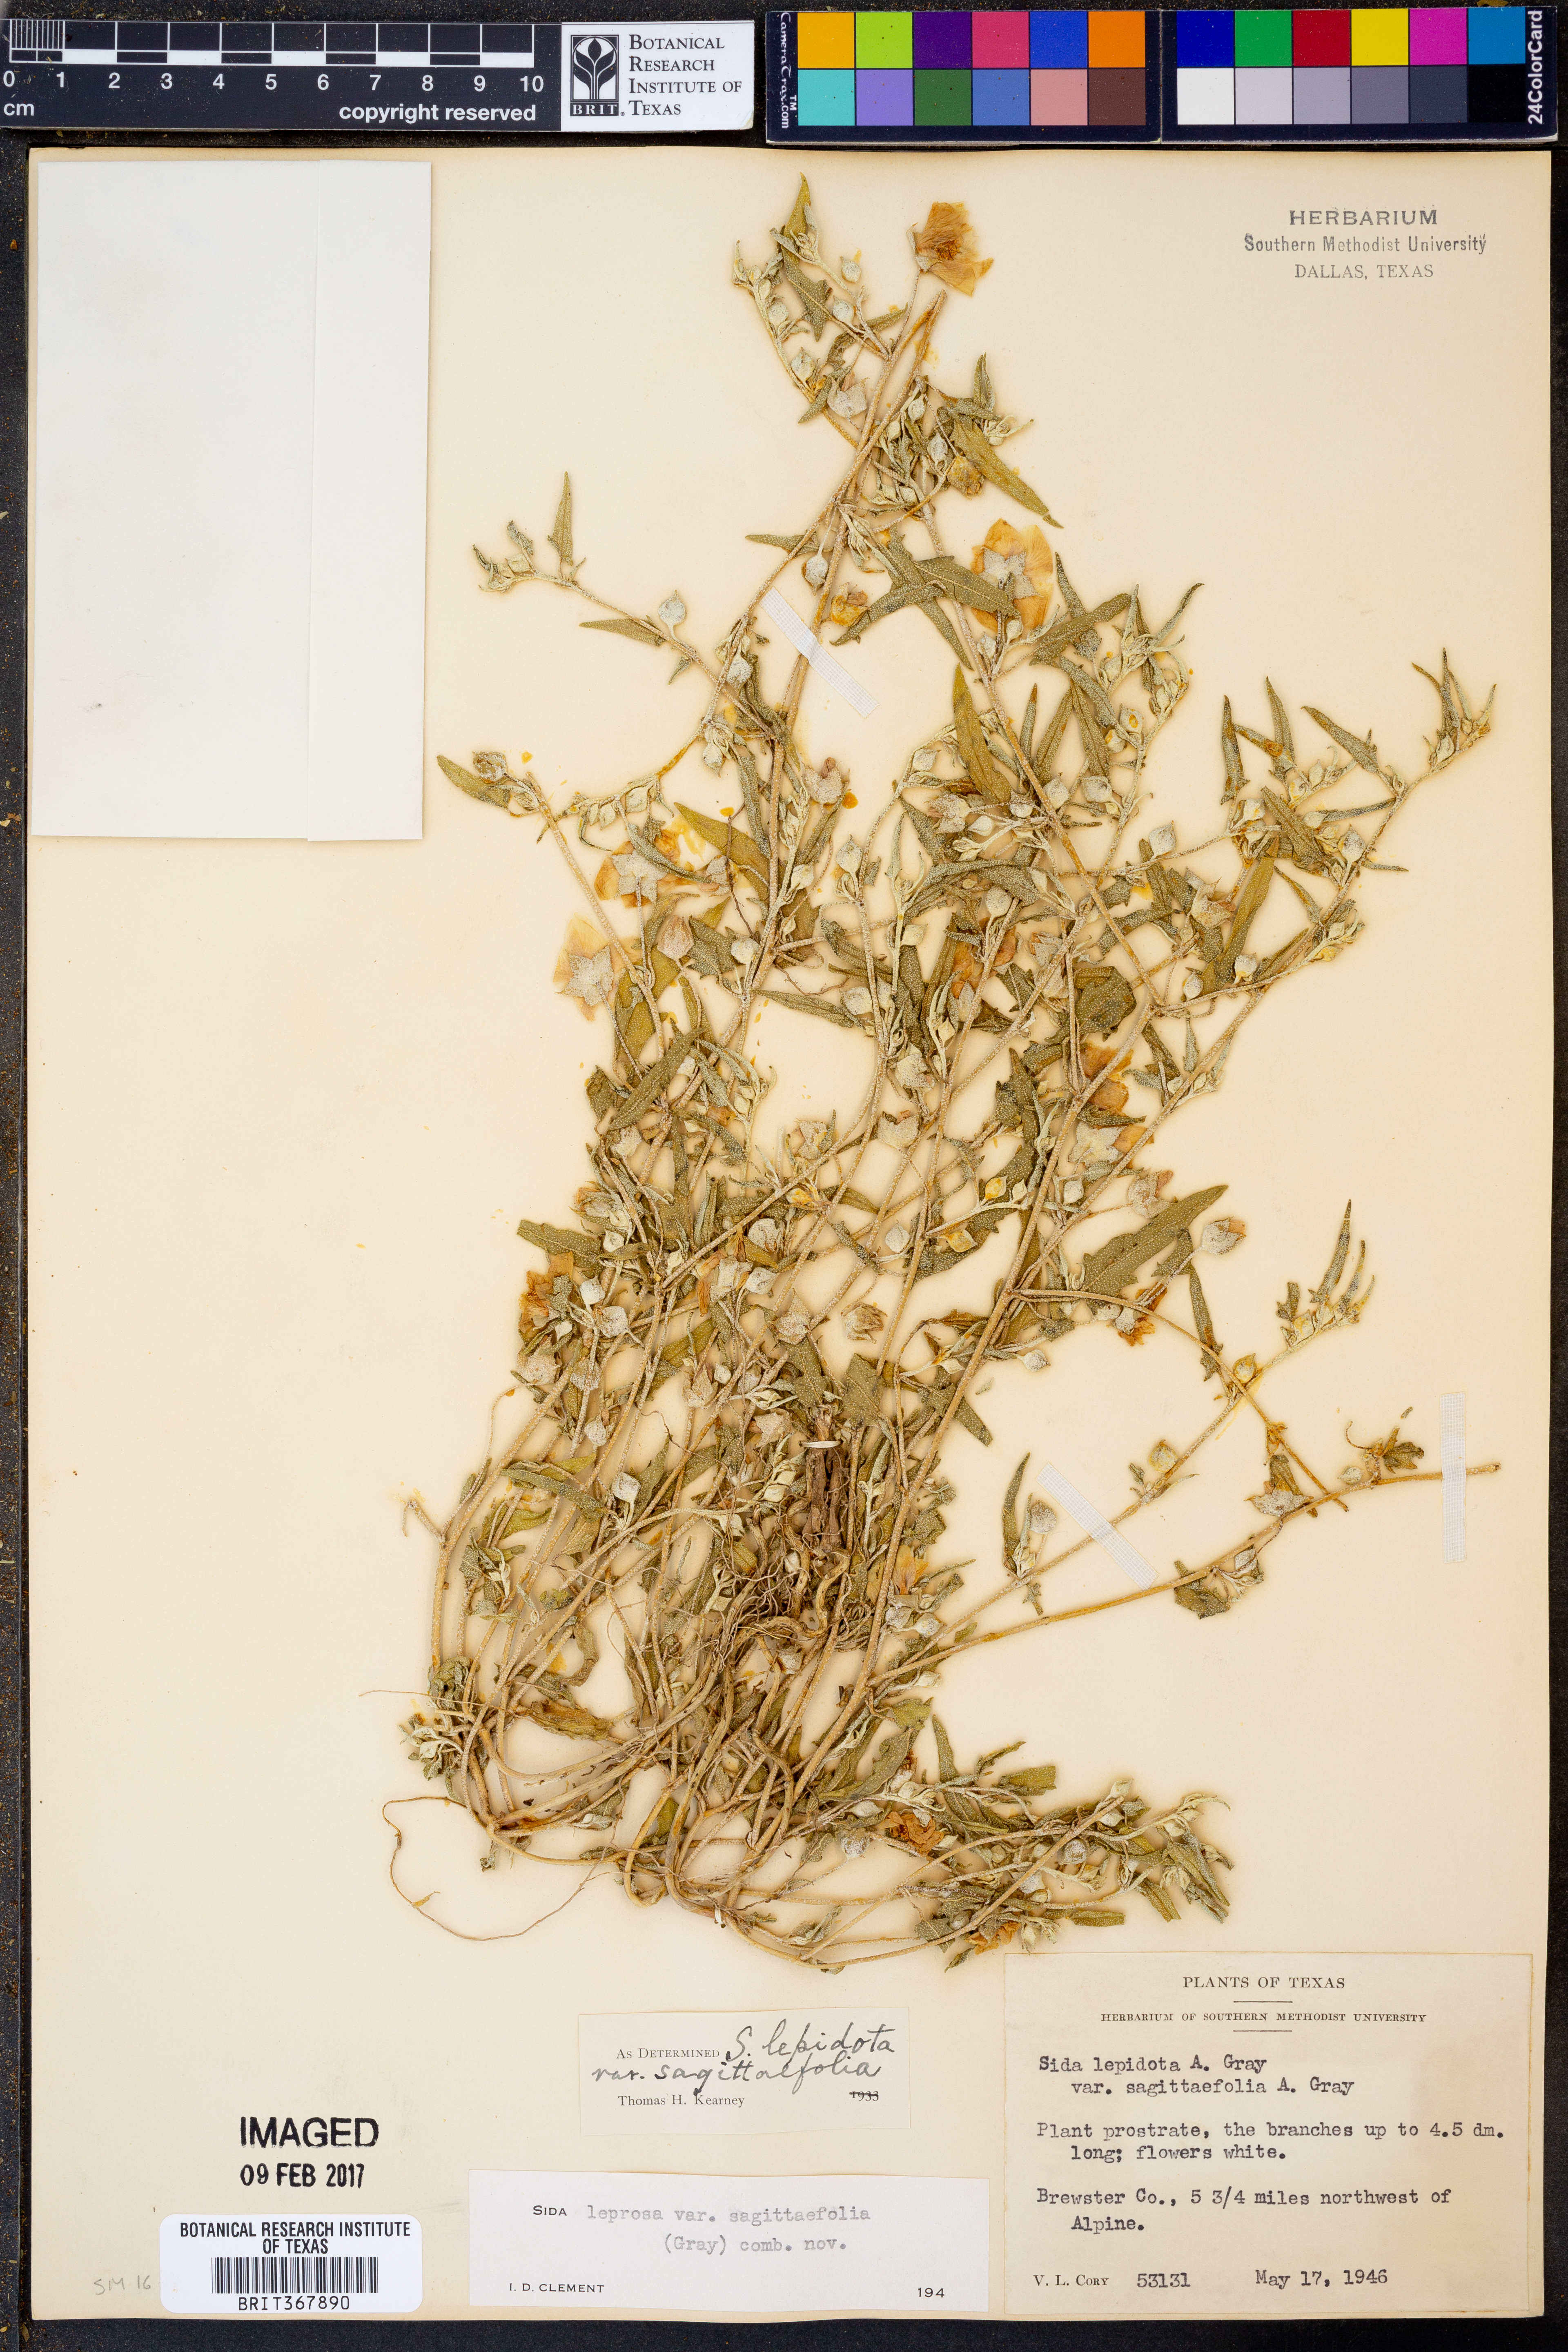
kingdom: Plantae
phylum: Tracheophyta
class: Magnoliopsida
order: Malvales
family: Malvaceae
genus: Malvella
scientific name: Malvella sagittifolia
